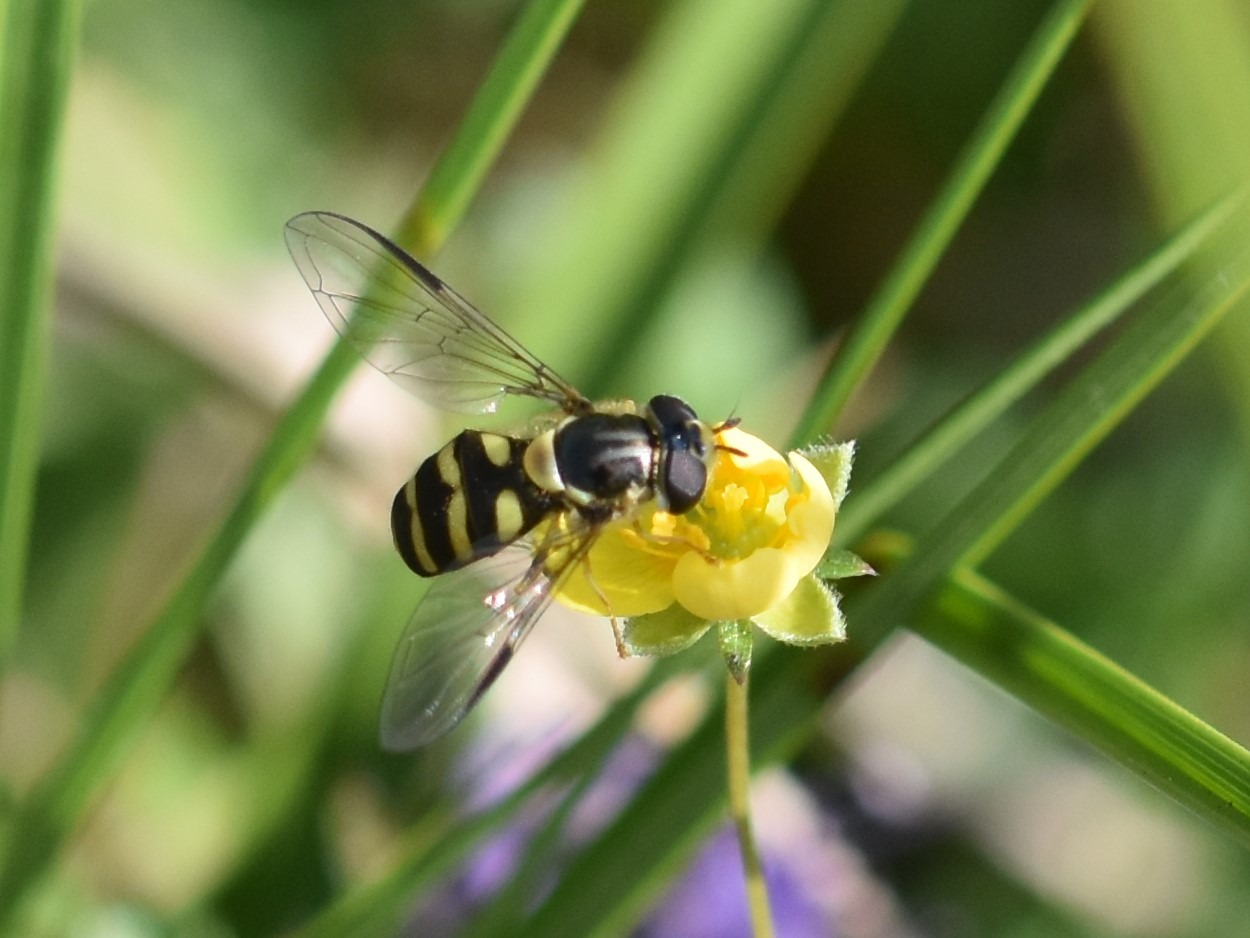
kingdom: Animalia
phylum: Arthropoda
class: Insecta
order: Diptera
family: Syrphidae
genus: Dasysyrphus
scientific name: Dasysyrphus albostriatus
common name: Stribet skovsvirreflue
